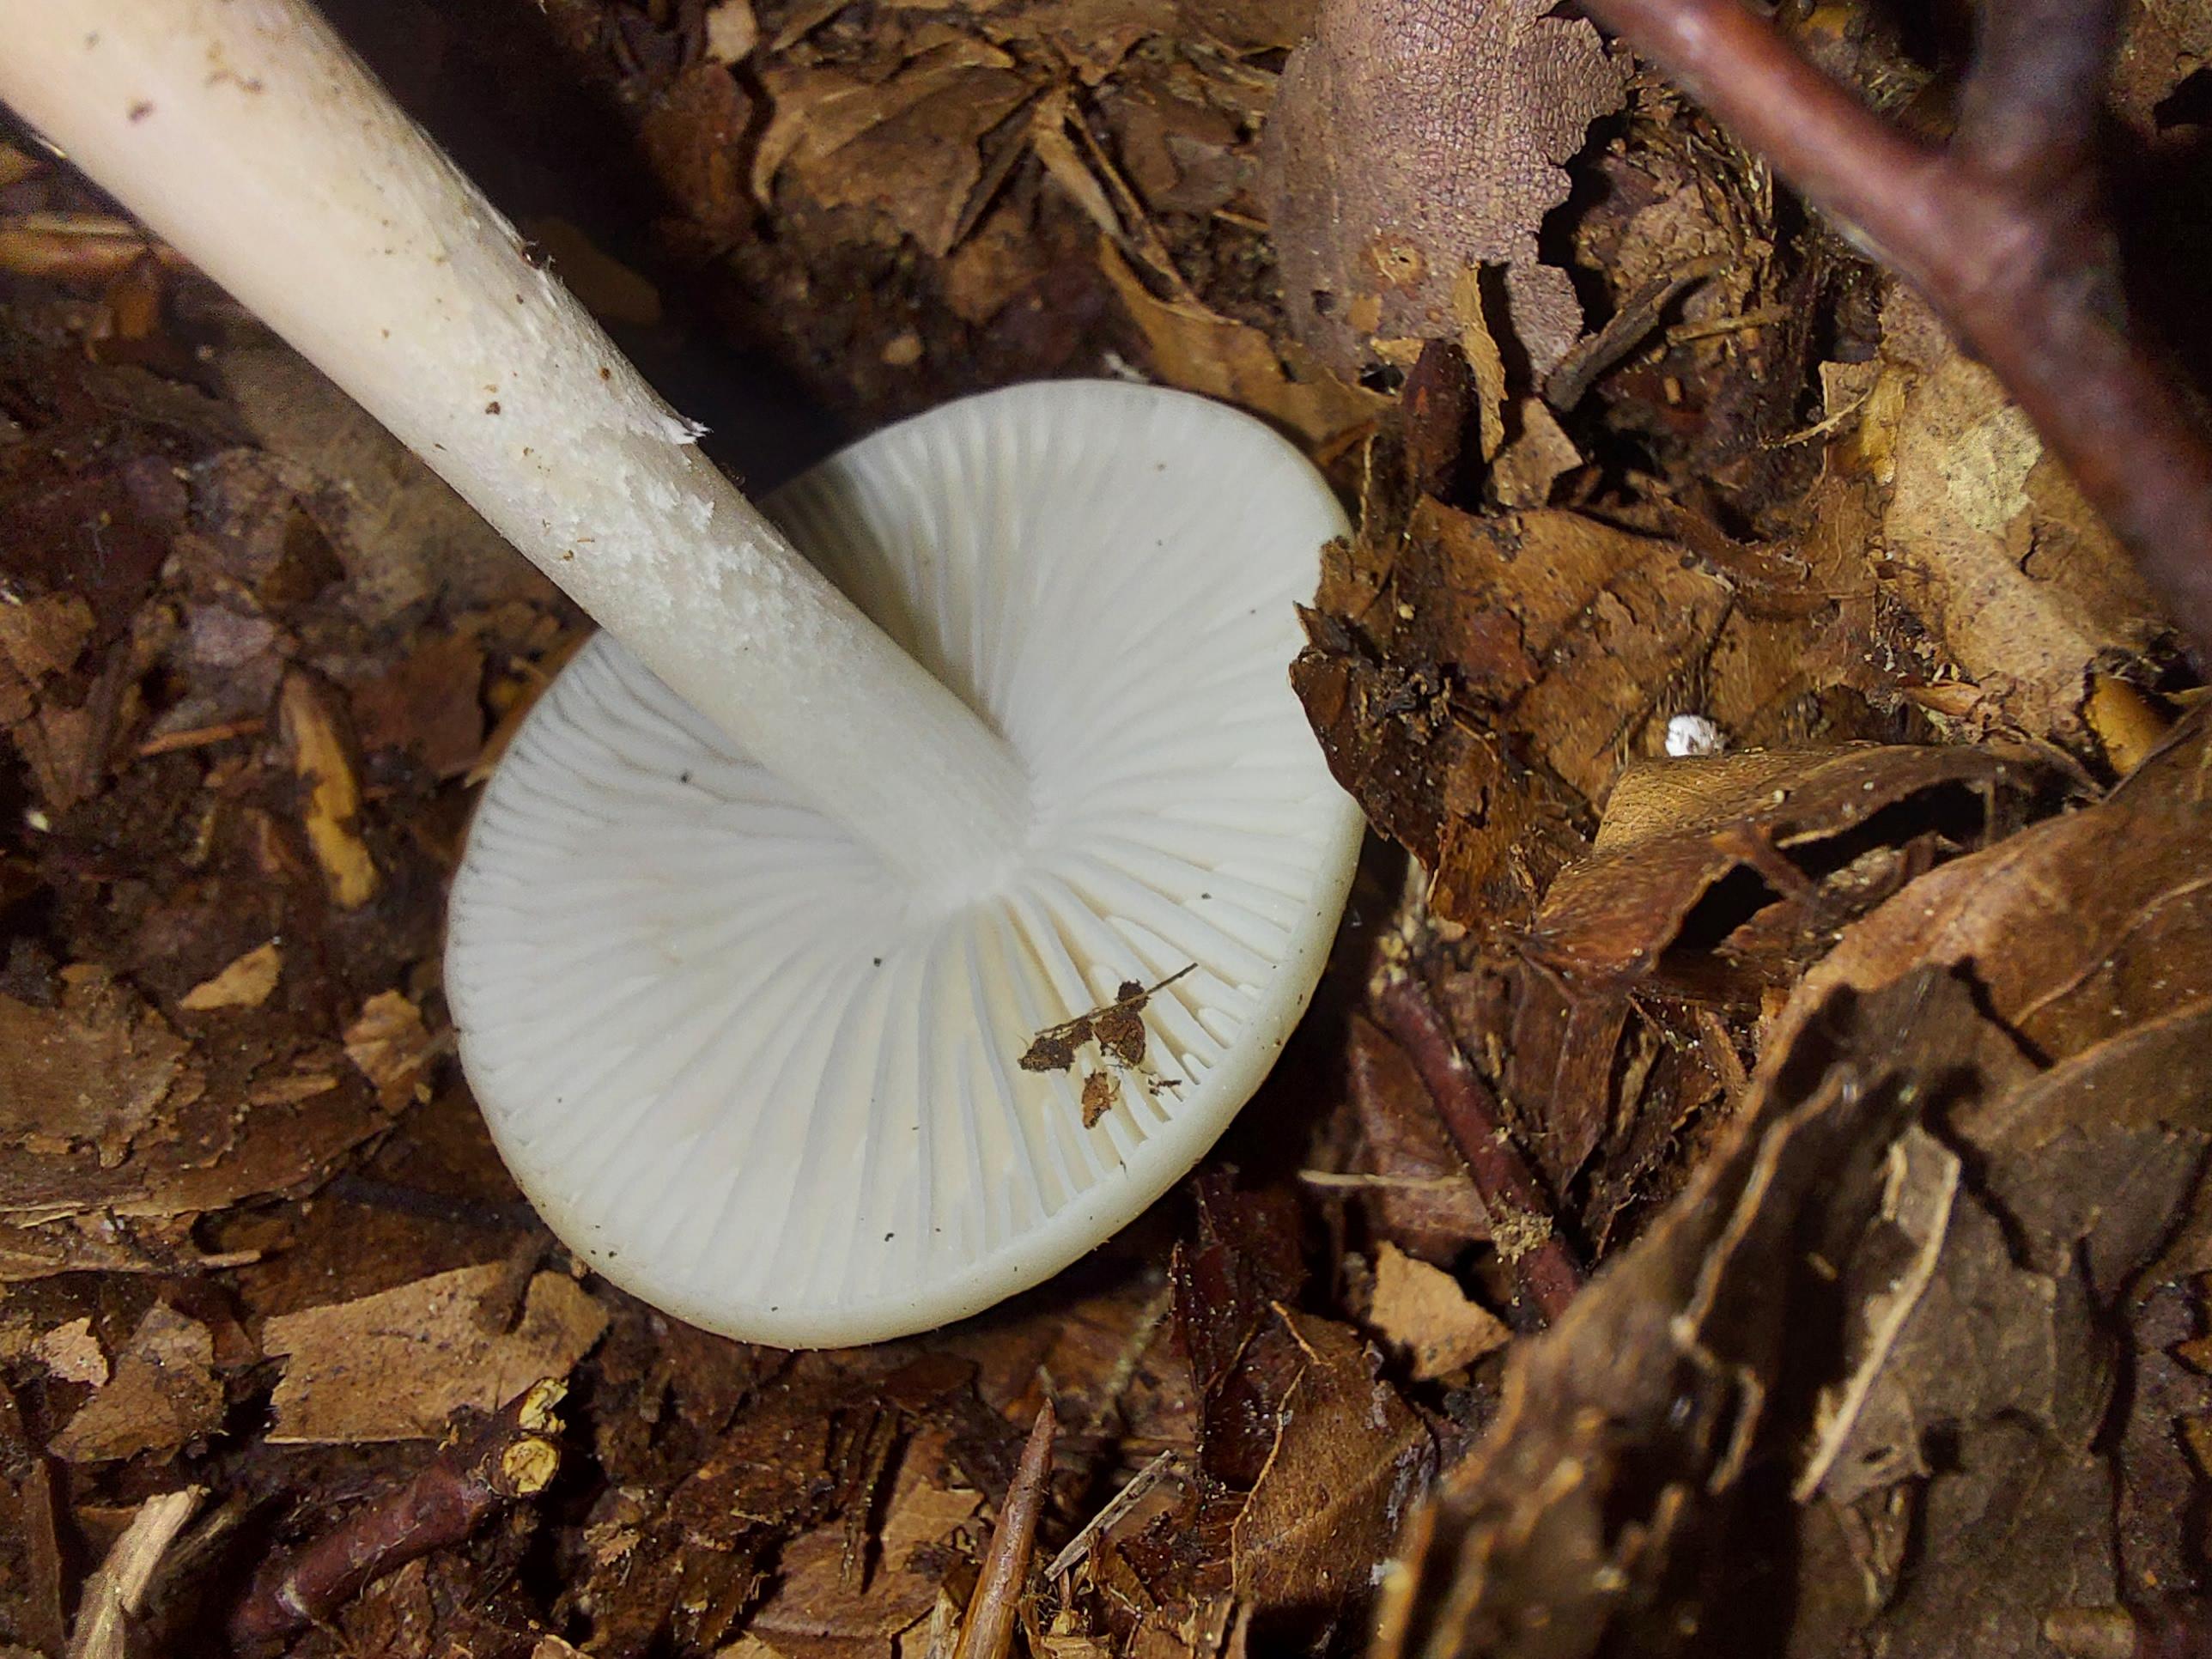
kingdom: Fungi
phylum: Basidiomycota
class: Agaricomycetes
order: Agaricales
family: Physalacriaceae
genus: Hymenopellis
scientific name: Hymenopellis radicata
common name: almindelig pælerodshat
